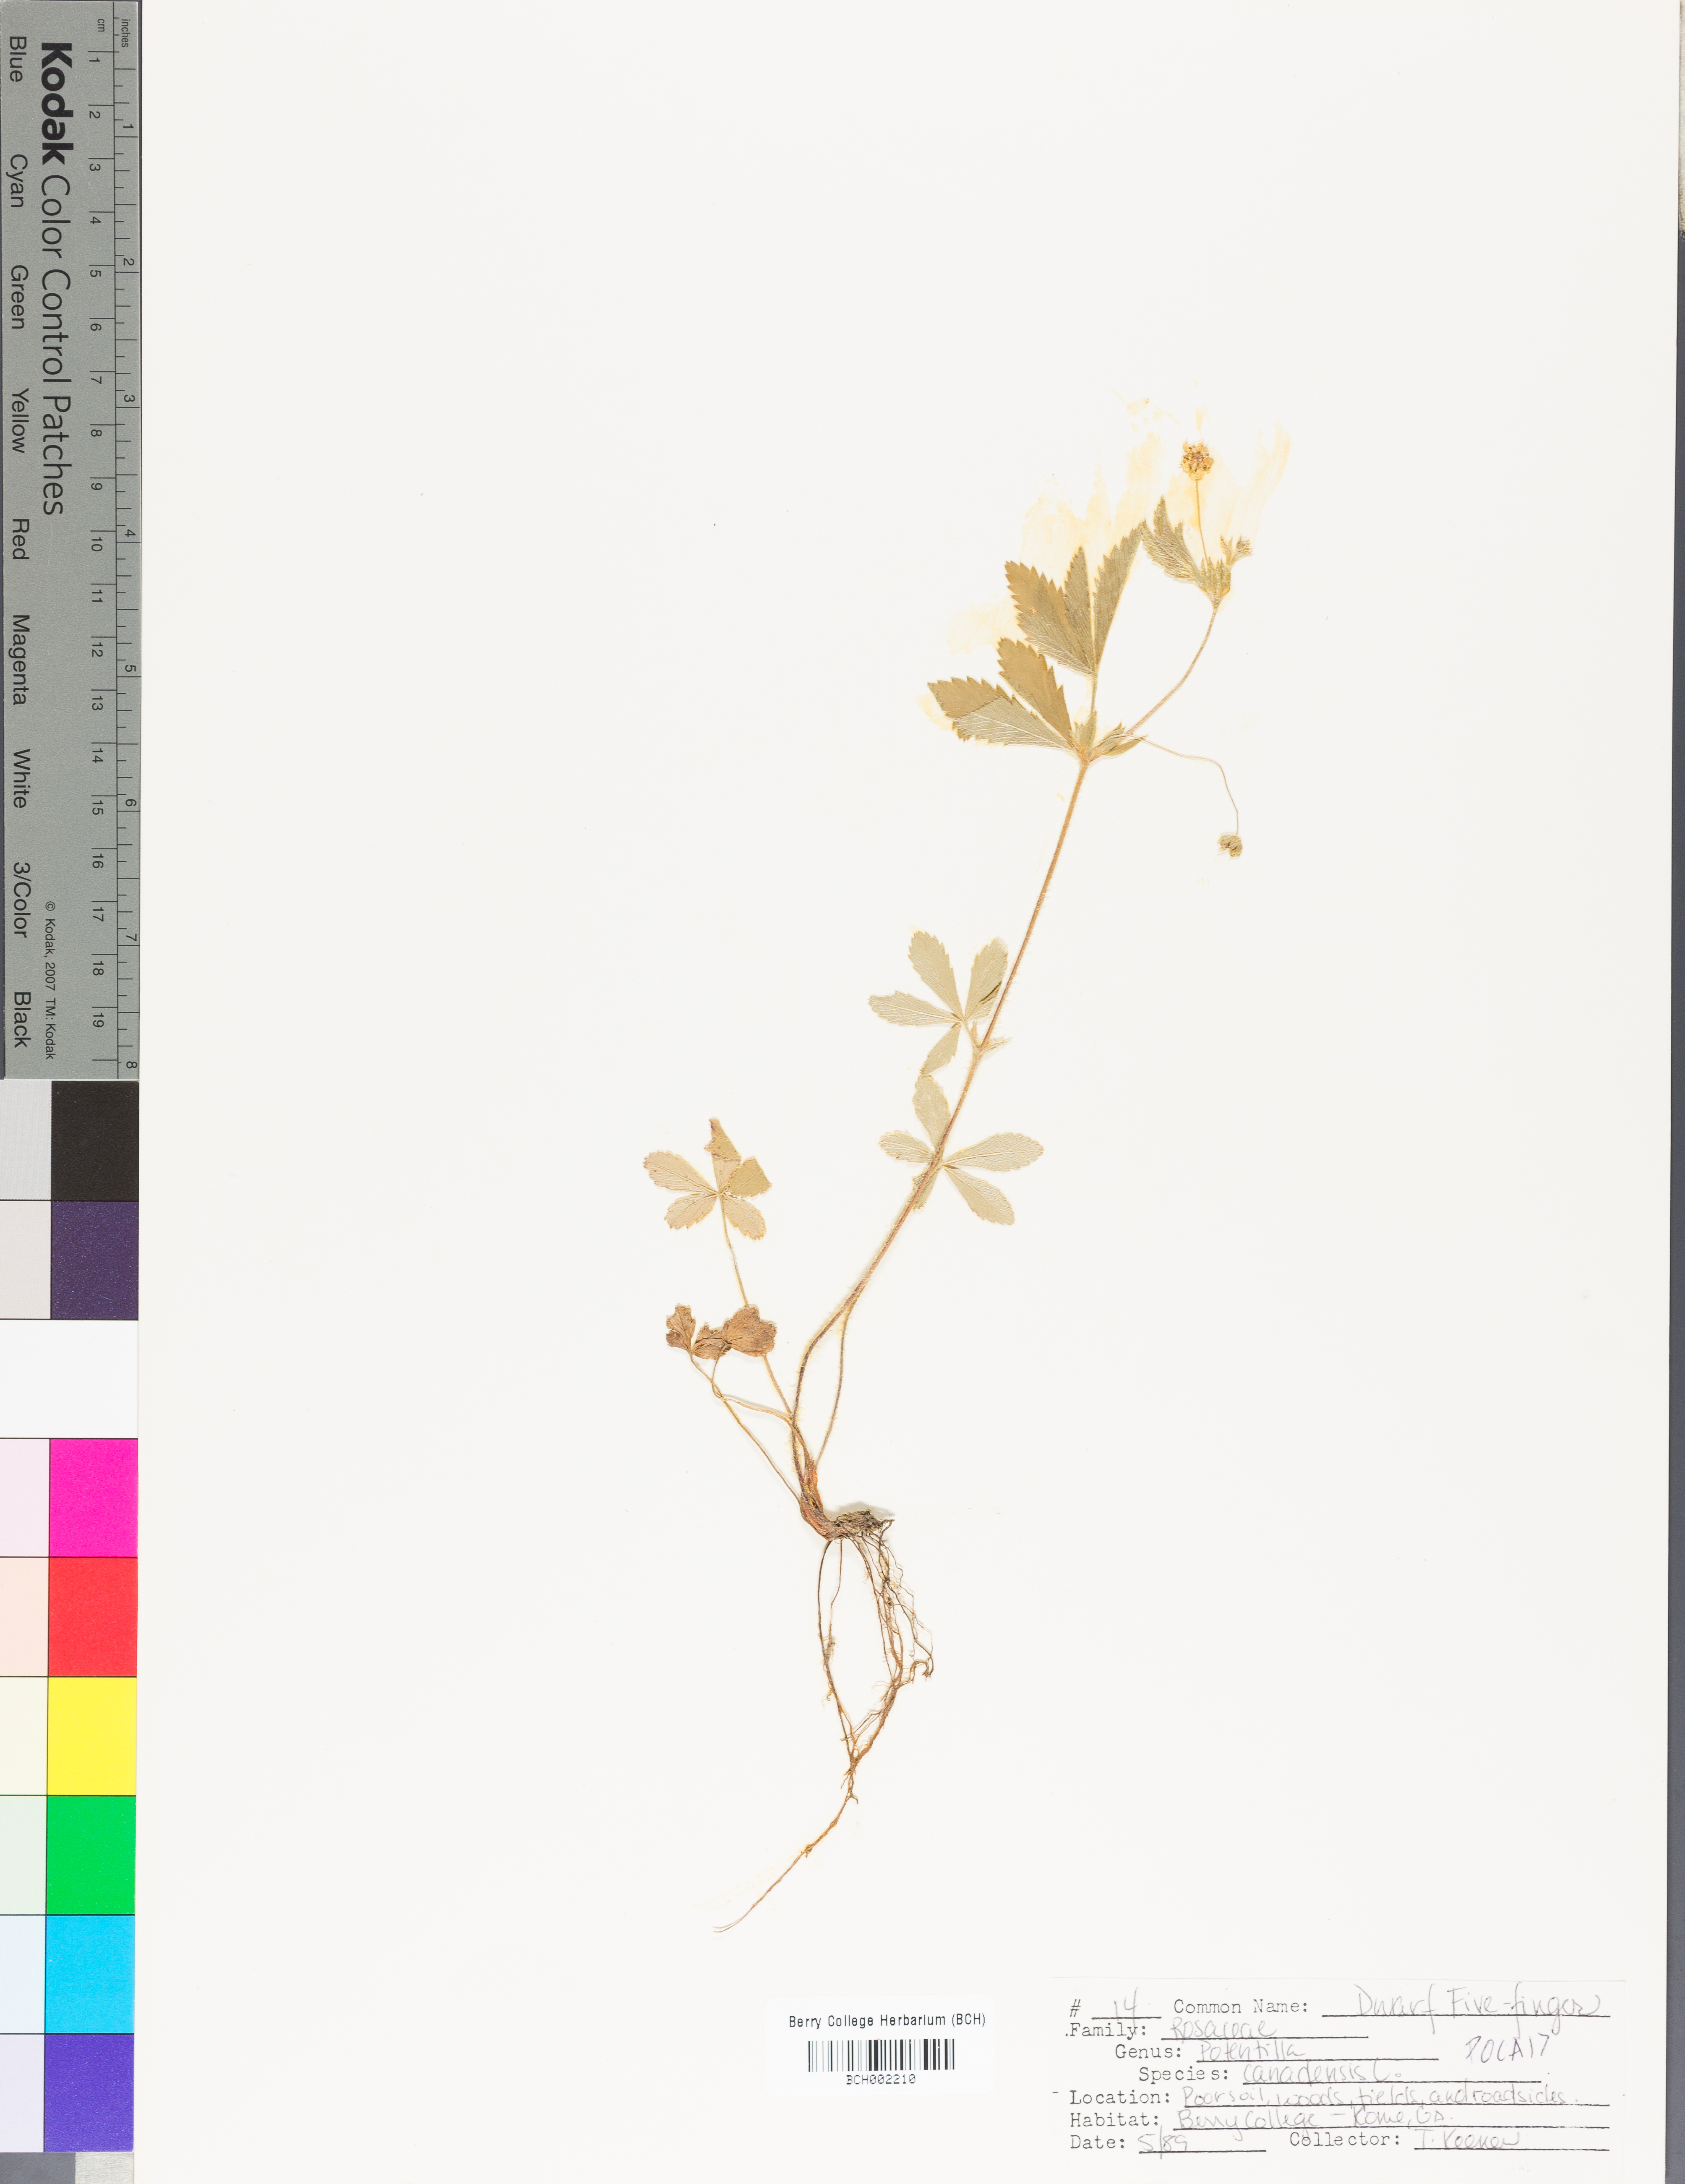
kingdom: Plantae
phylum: Tracheophyta
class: Magnoliopsida
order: Rosales
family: Rosaceae
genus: Potentilla
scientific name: Potentilla canadensis
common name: Canada cinquefoil
